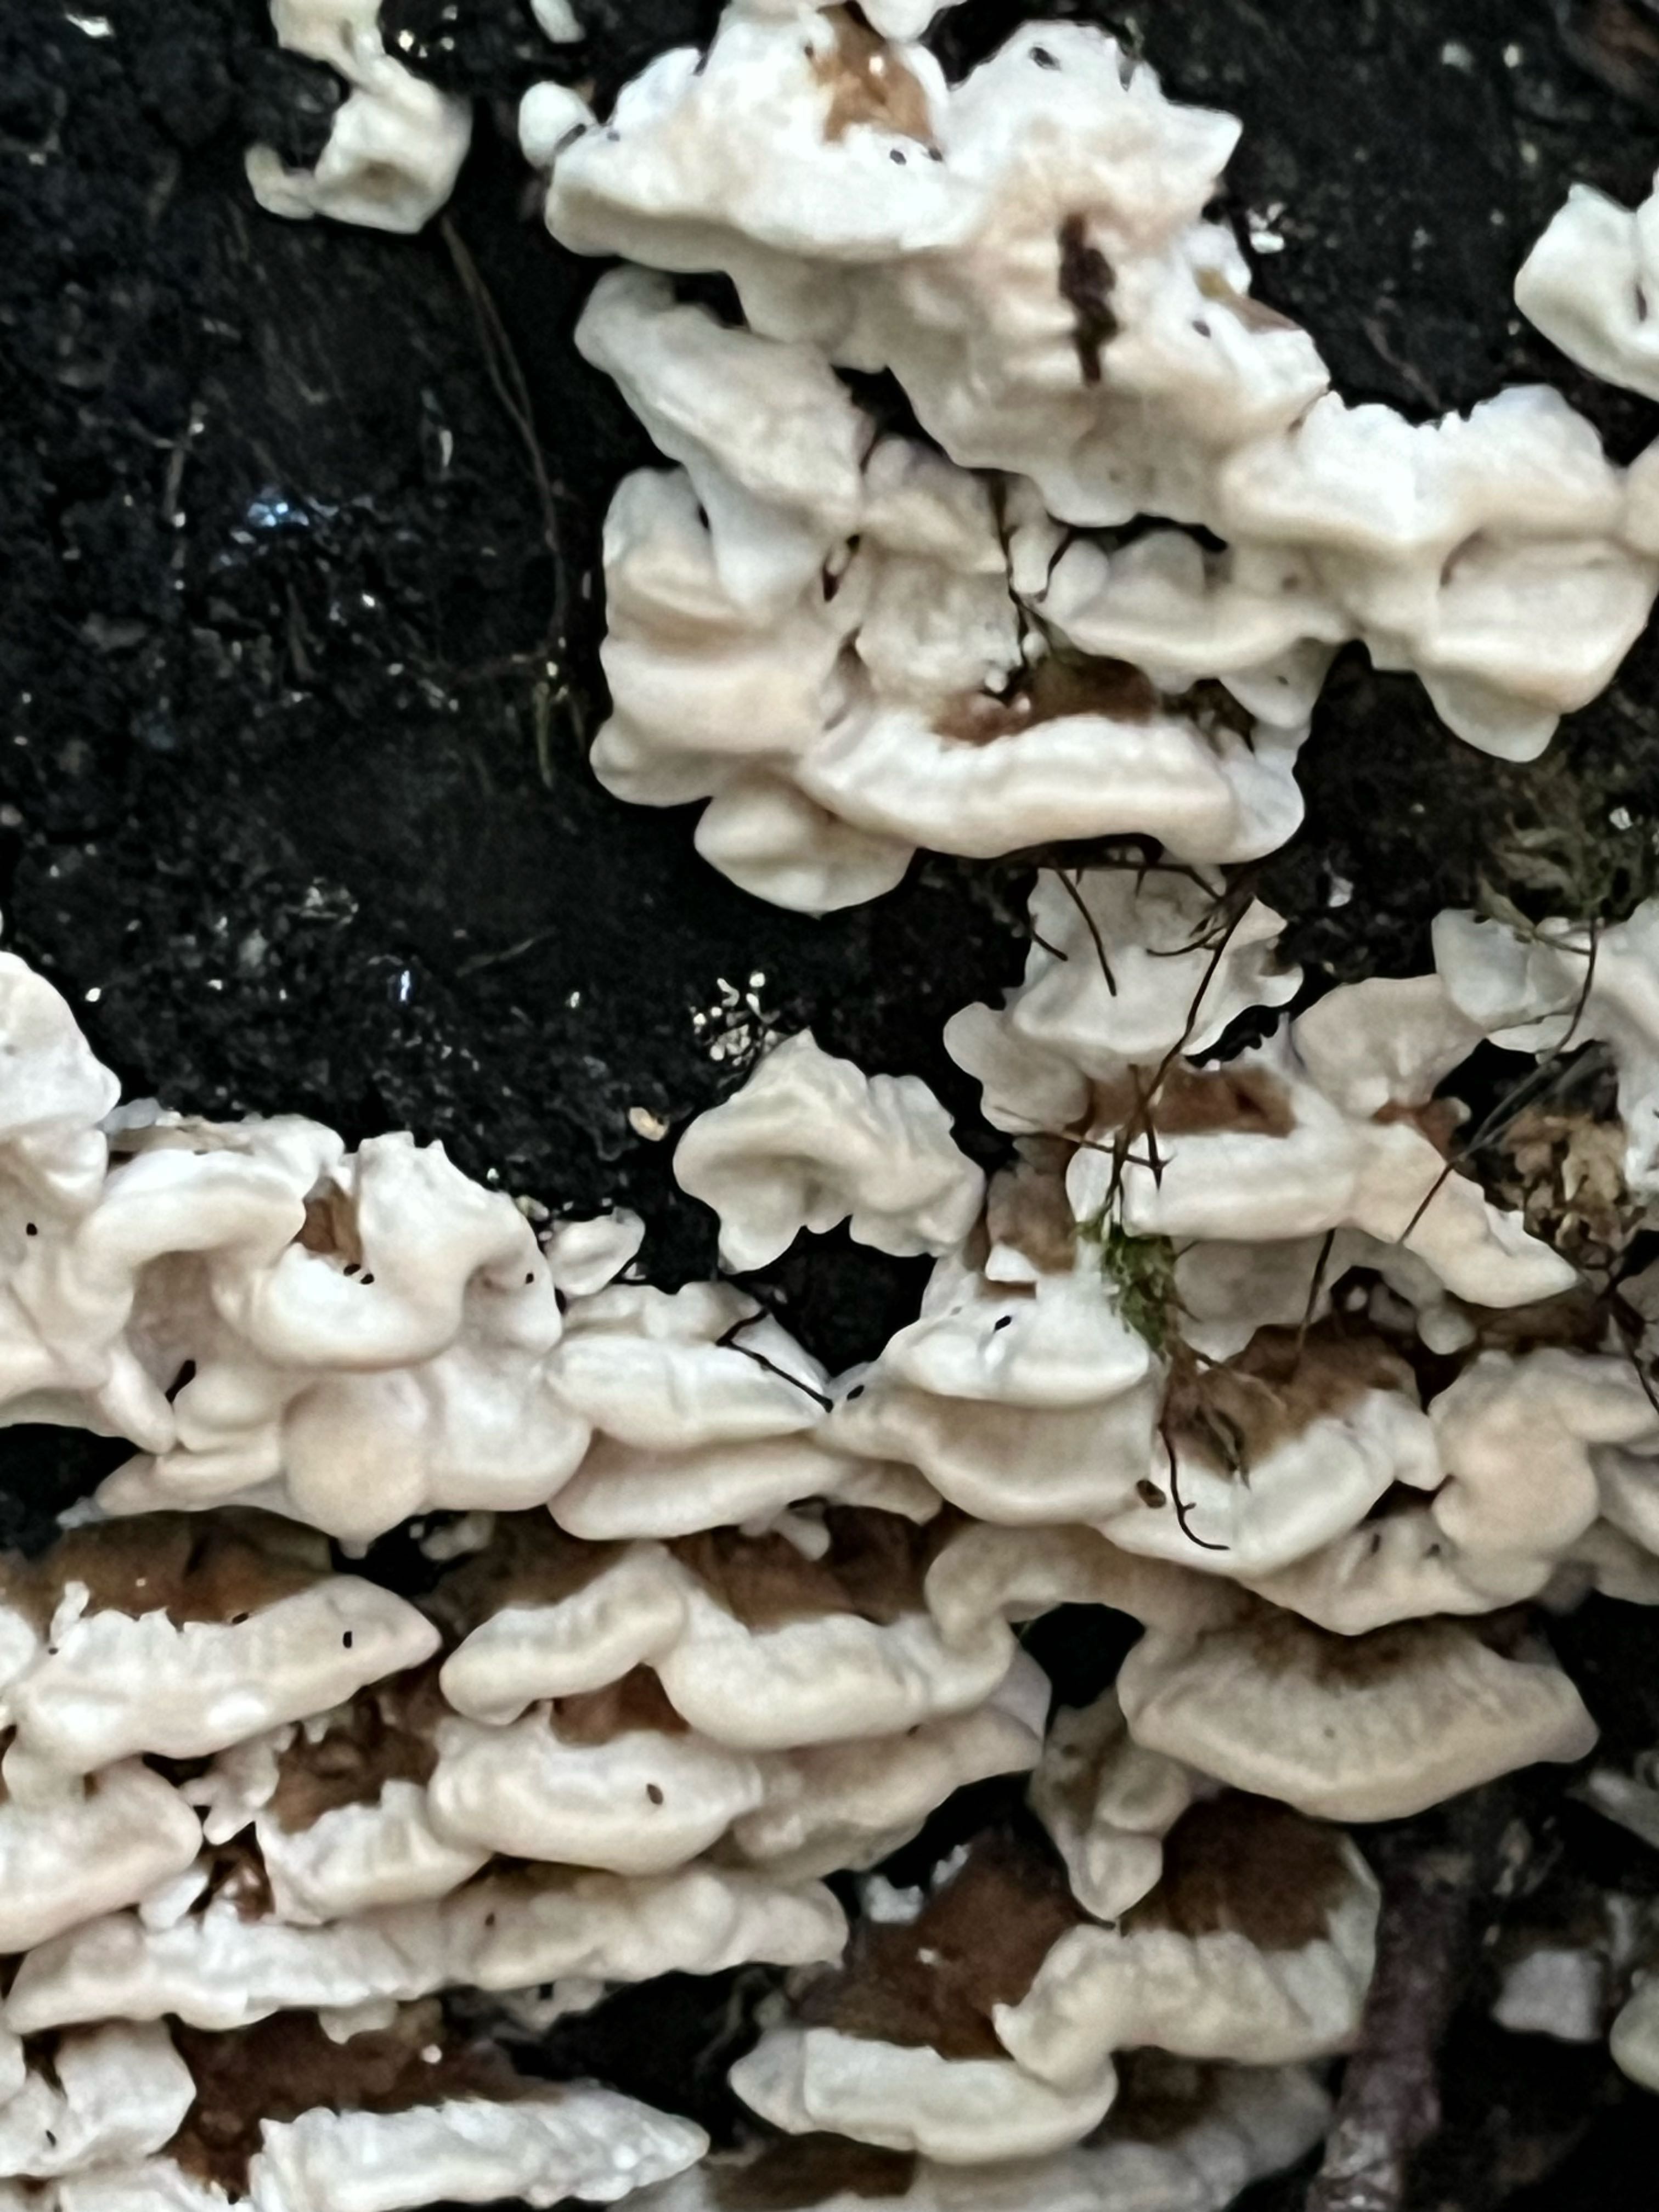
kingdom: Fungi
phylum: Basidiomycota
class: Agaricomycetes
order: Polyporales
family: Polyporaceae
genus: Trametes
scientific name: Trametes versicolor
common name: broget læderporesvamp
